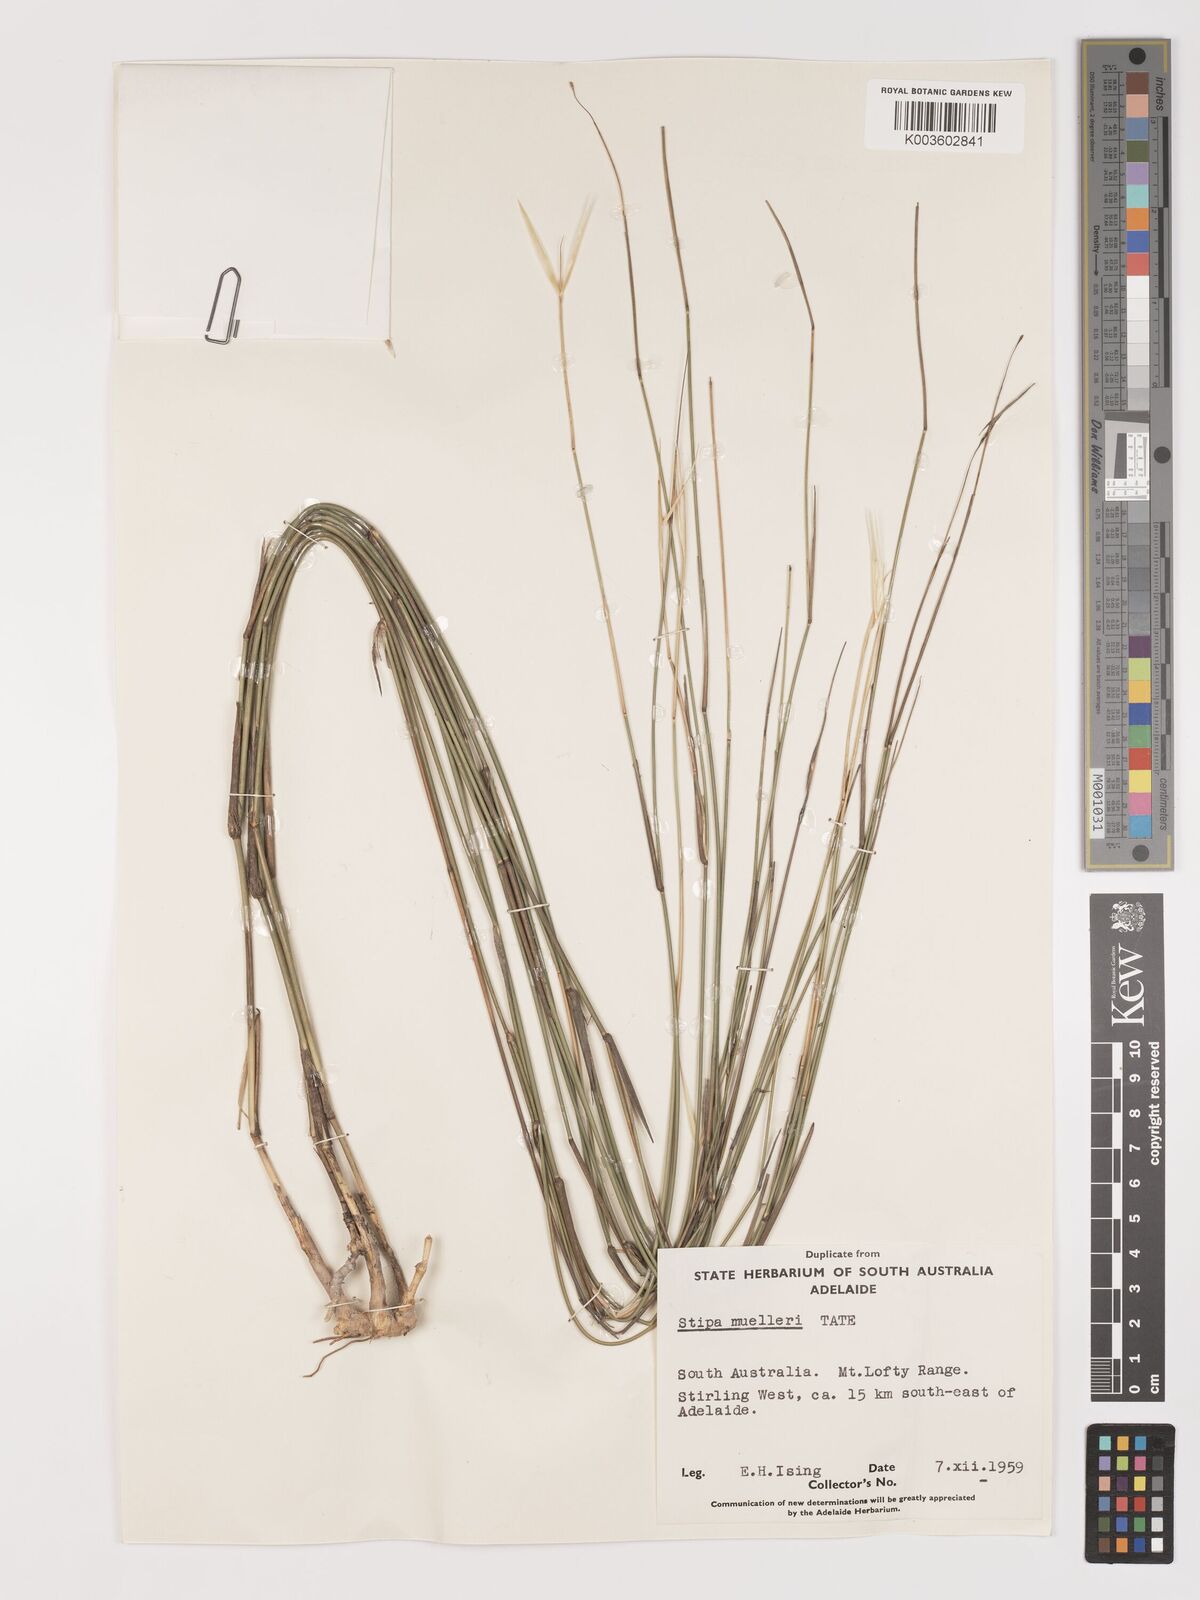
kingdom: Plantae
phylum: Tracheophyta
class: Liliopsida
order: Poales
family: Poaceae
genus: Austrostipa
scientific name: Austrostipa muelleri
